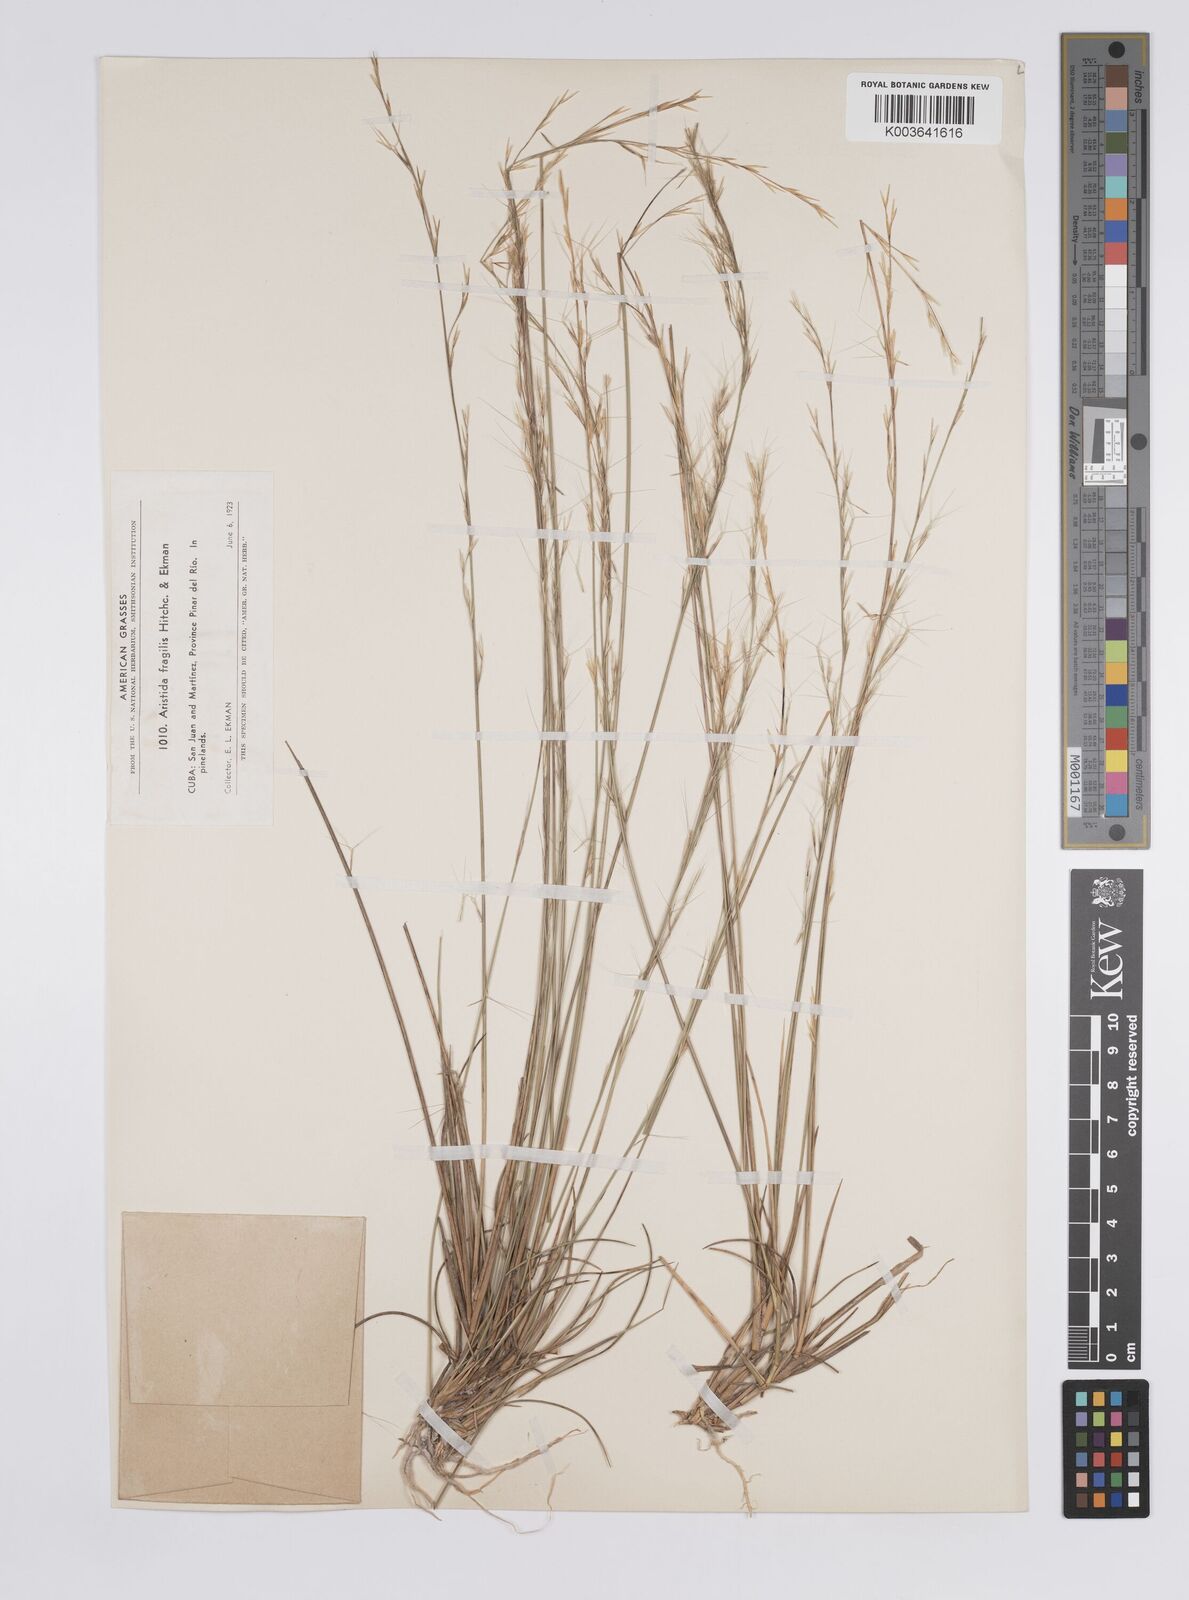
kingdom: Plantae
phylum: Tracheophyta
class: Liliopsida
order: Poales
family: Poaceae
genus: Aristida
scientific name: Aristida fragilis
